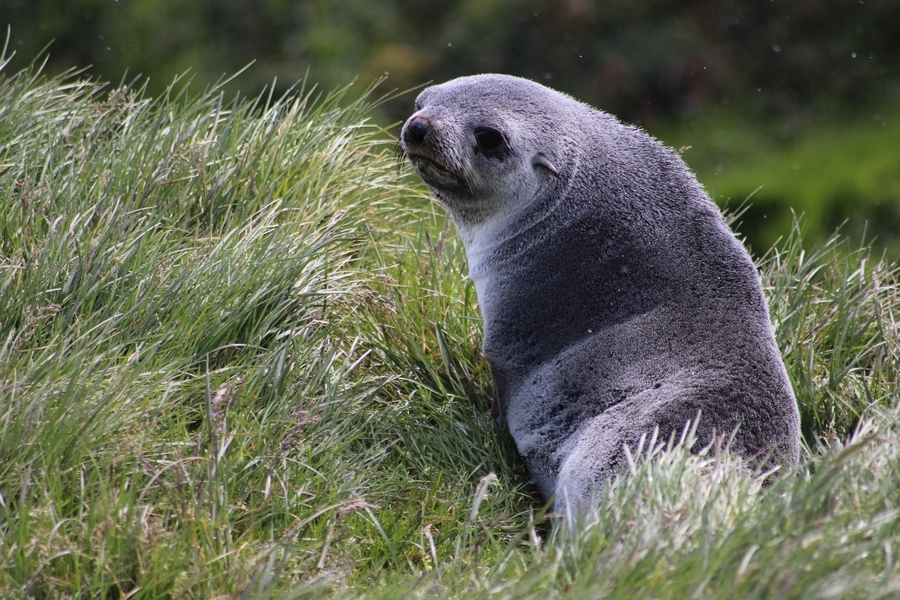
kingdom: Animalia
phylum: Chordata
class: Mammalia
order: Carnivora
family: Otariidae
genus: Arctocephalus
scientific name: Arctocephalus gazella
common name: Antarctic Fur Seal
